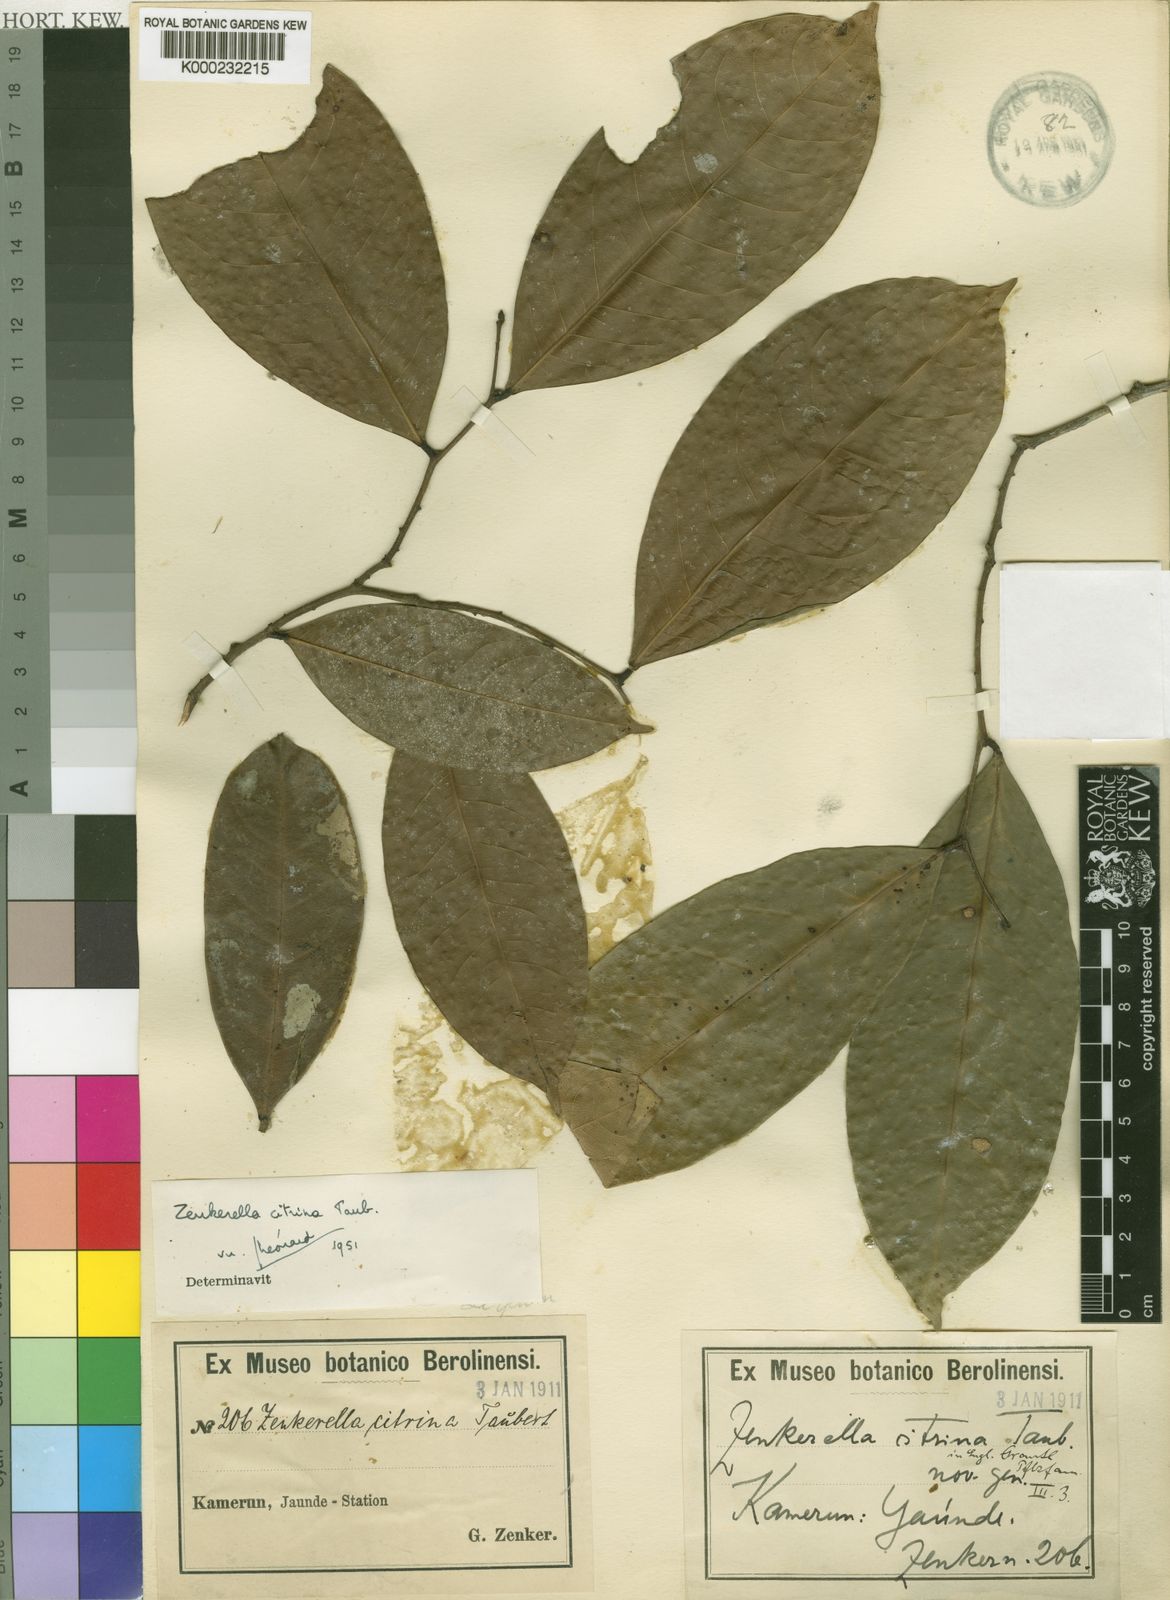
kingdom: Plantae
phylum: Tracheophyta
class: Magnoliopsida
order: Fabales
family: Fabaceae
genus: Zenkerella
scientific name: Zenkerella
